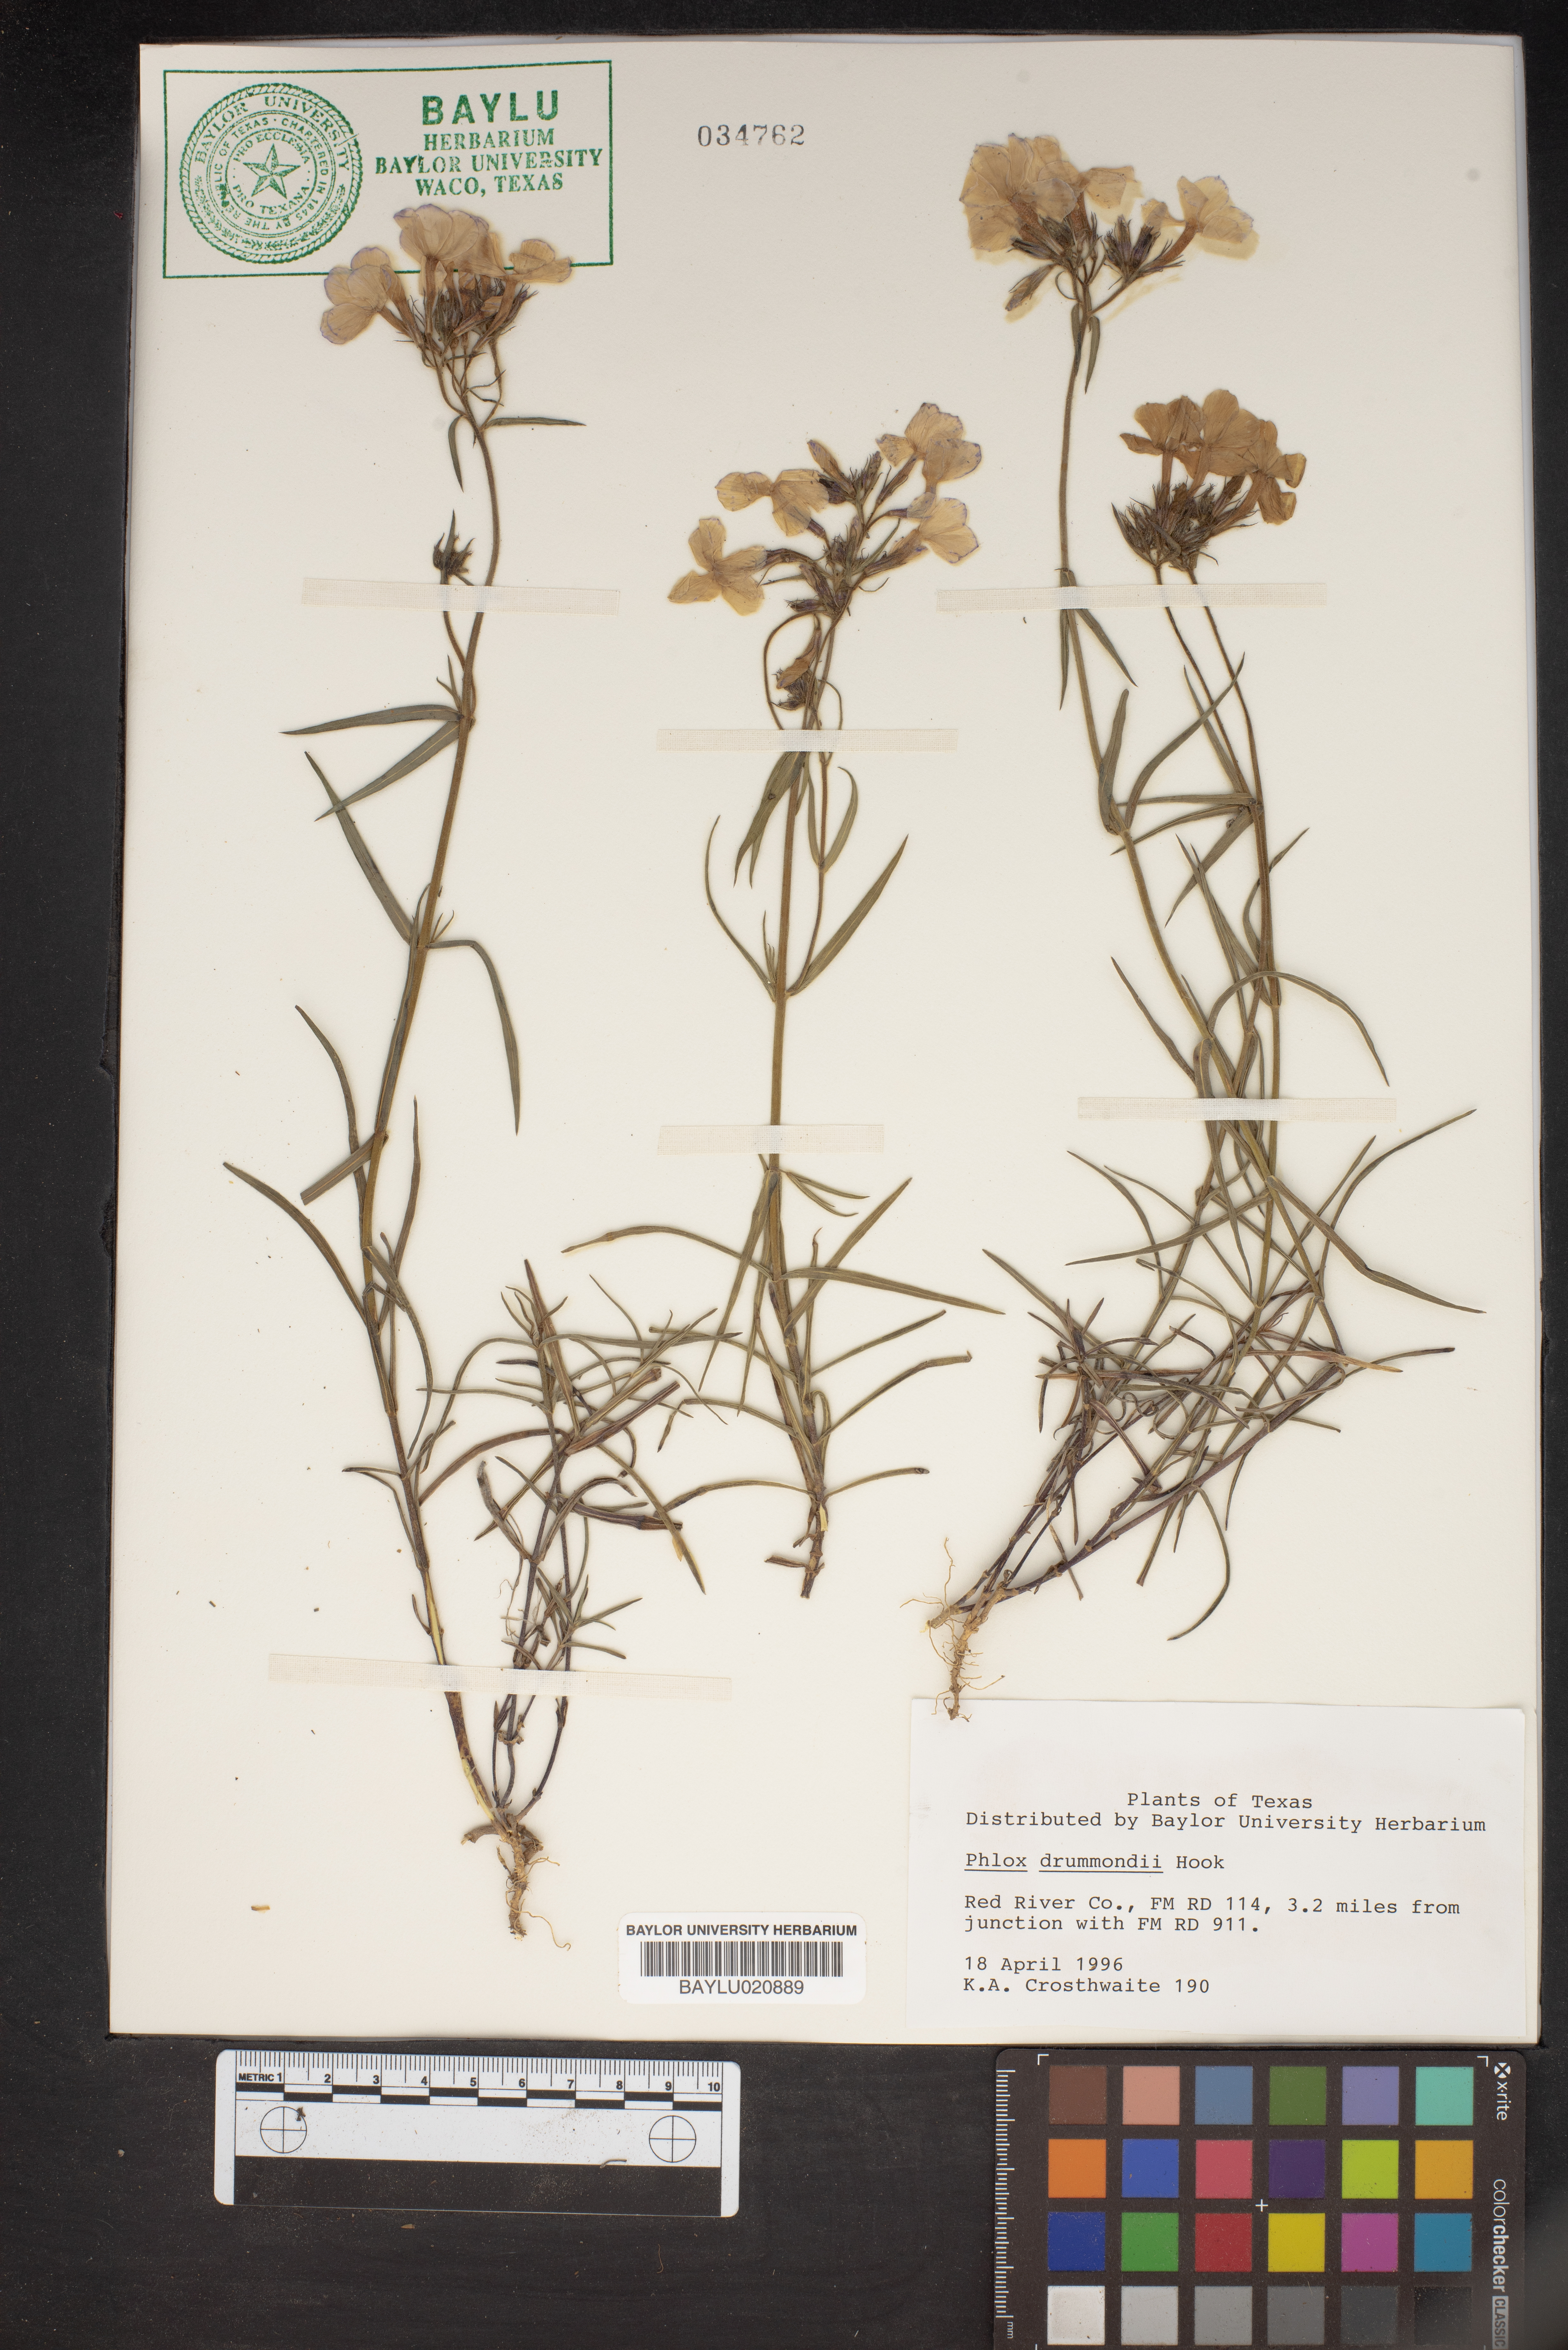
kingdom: Plantae
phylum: Tracheophyta
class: Magnoliopsida
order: Ericales
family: Polemoniaceae
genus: Phlox
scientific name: Phlox drummondii
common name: Drummond's phlox
